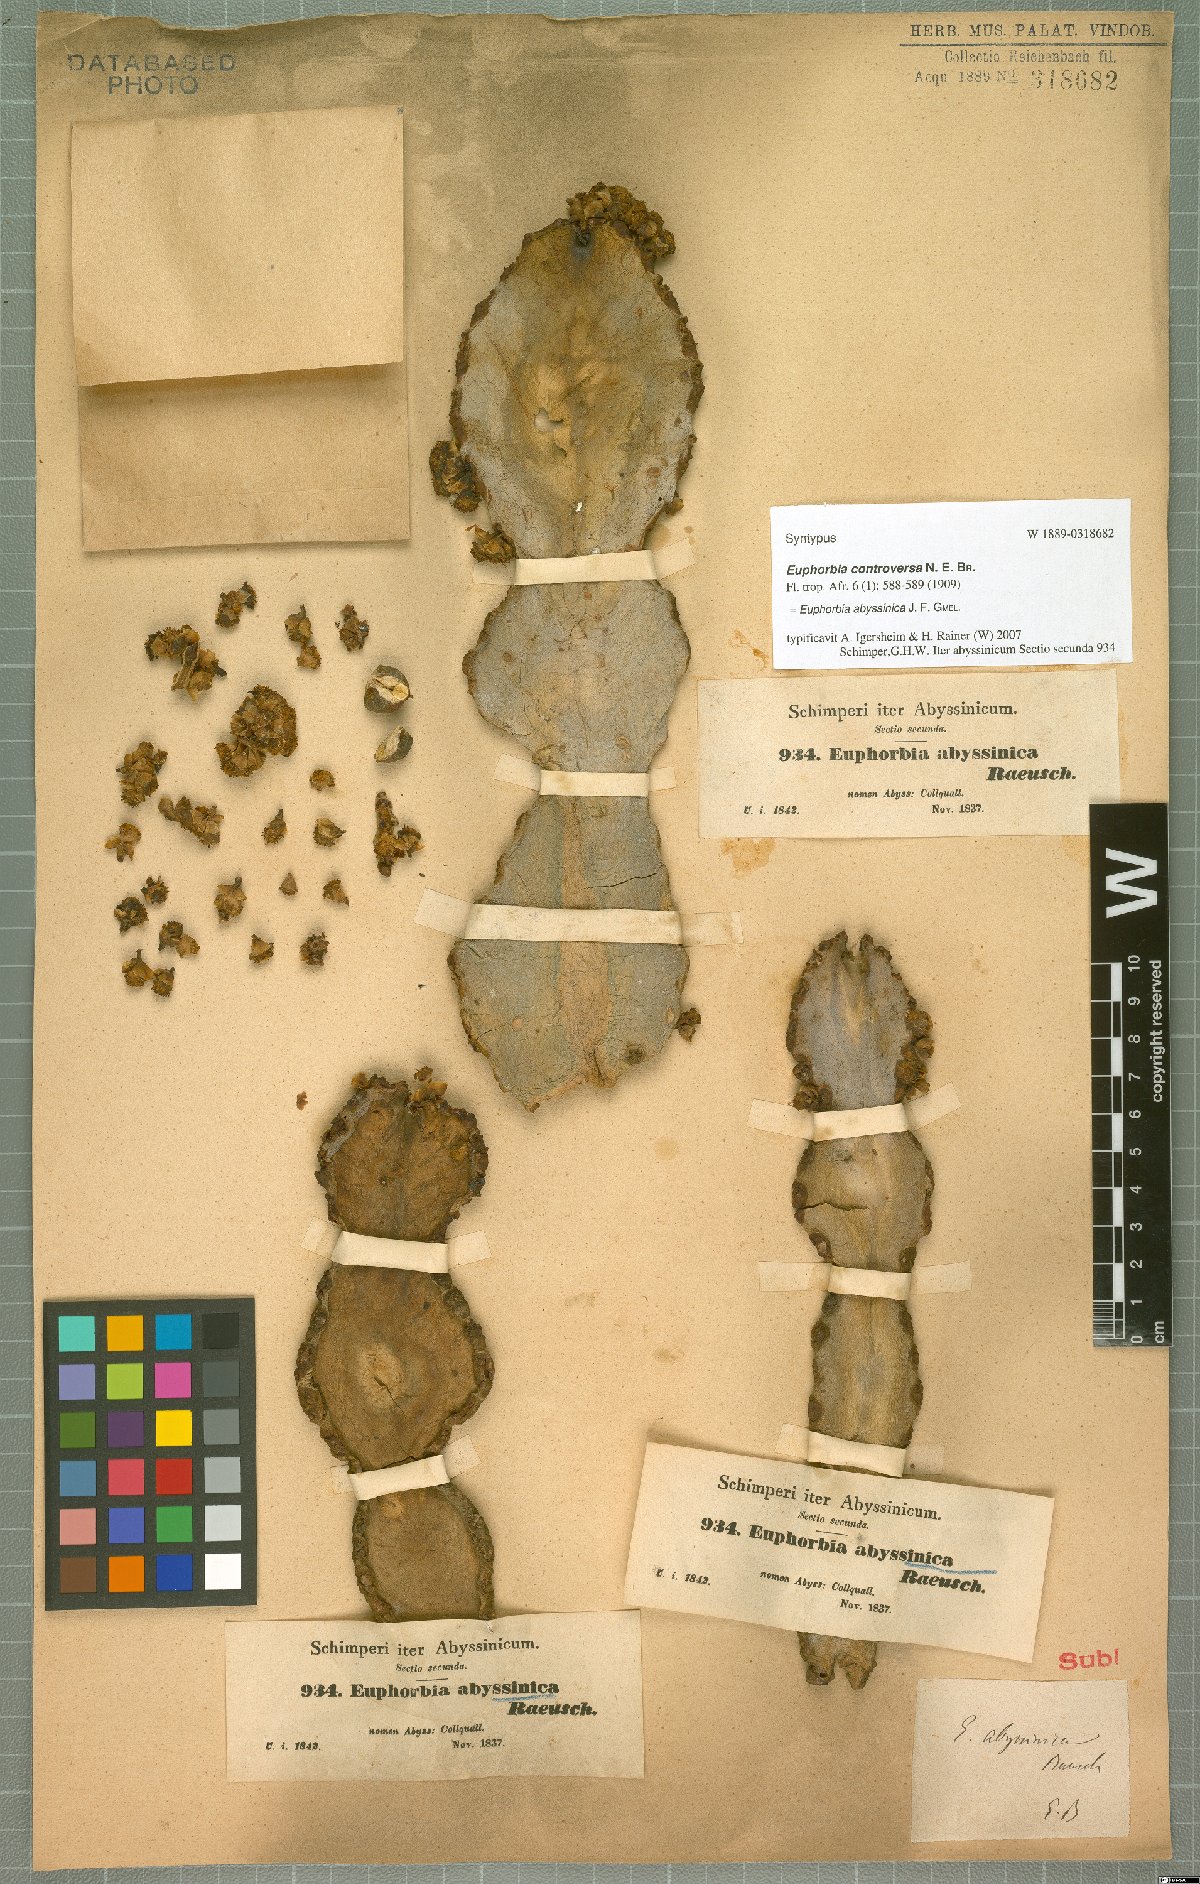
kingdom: Plantae
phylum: Tracheophyta
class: Magnoliopsida
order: Malpighiales
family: Euphorbiaceae
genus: Euphorbia
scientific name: Euphorbia abyssinica
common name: Abyssinian spurge
